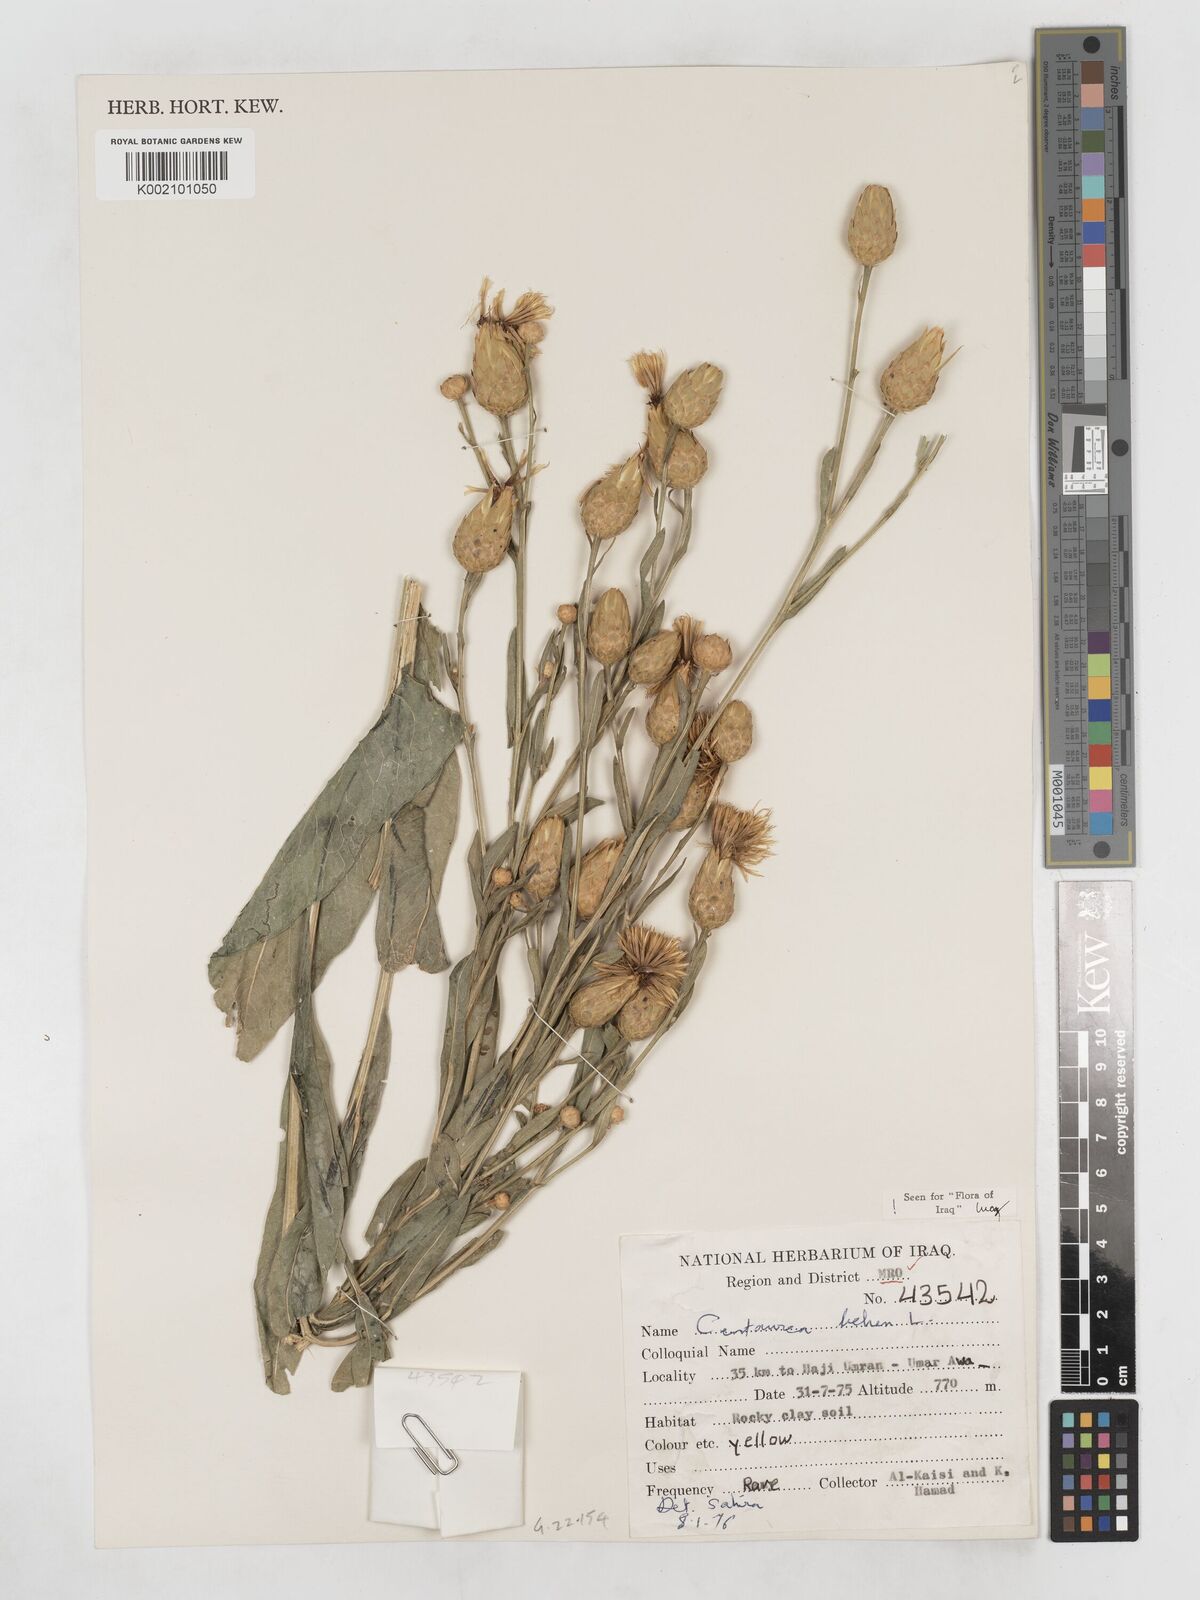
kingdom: Plantae
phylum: Tracheophyta
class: Magnoliopsida
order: Asterales
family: Asteraceae
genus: Centaurea
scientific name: Centaurea behen
